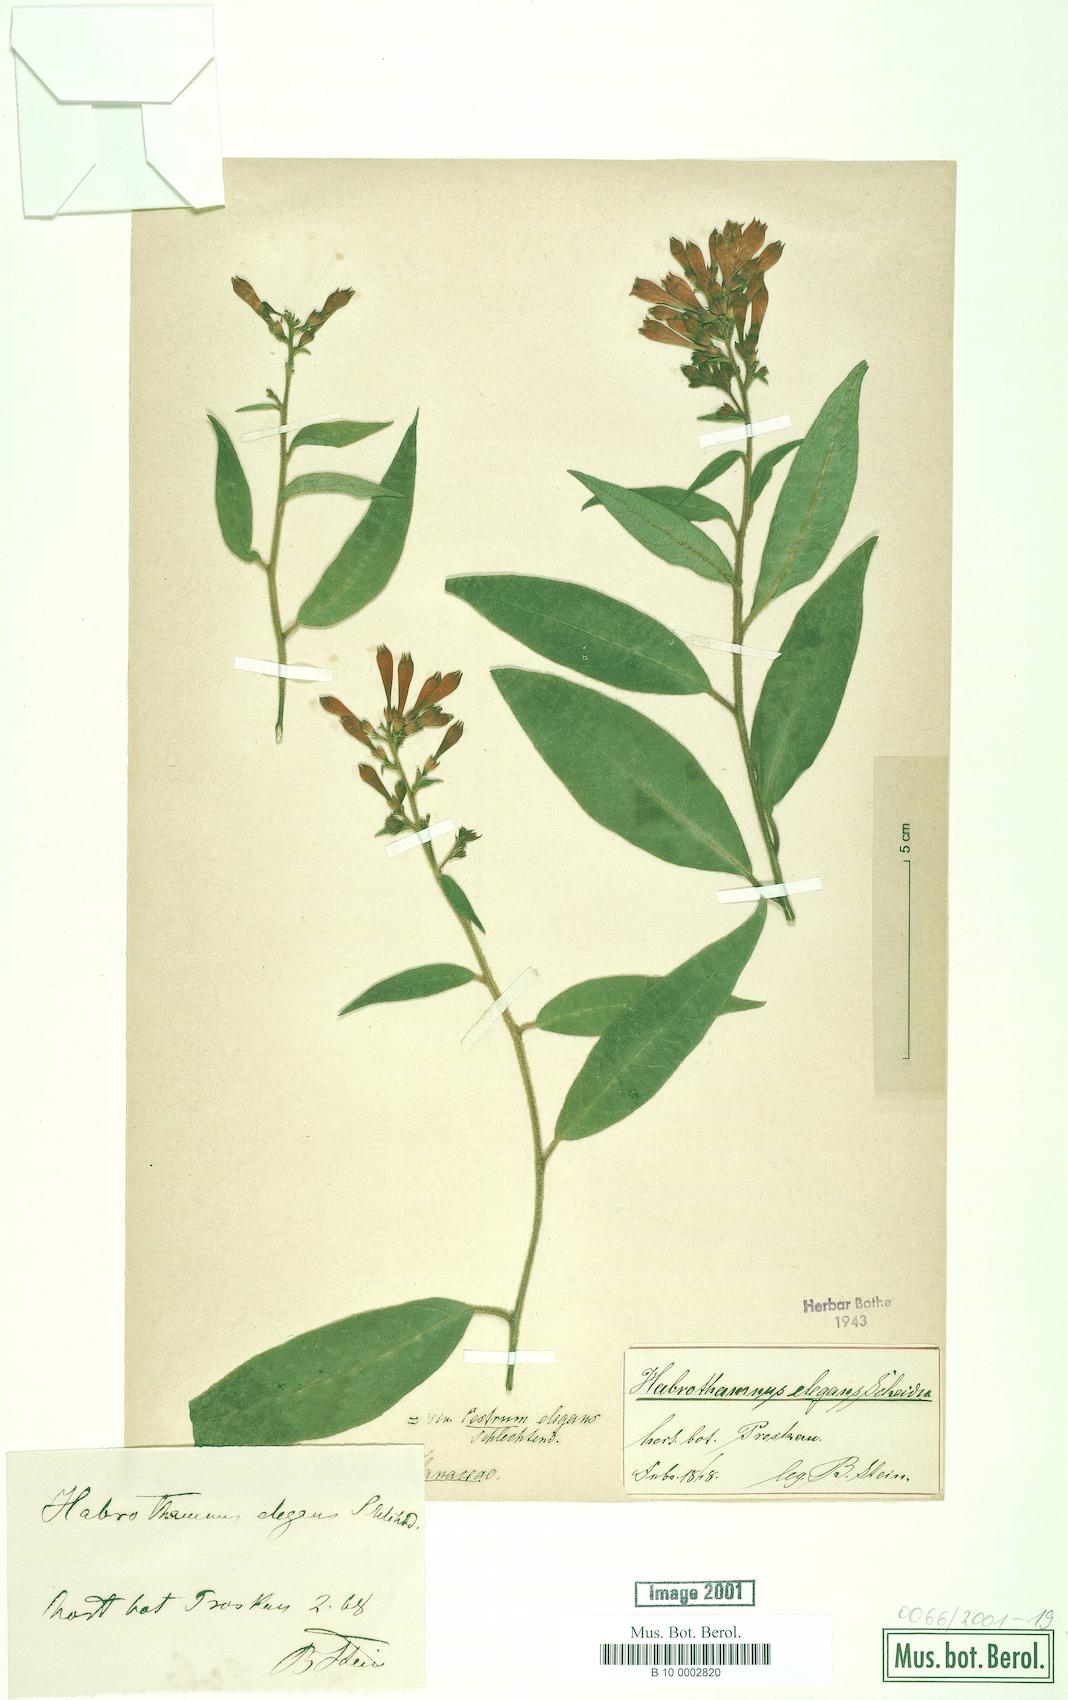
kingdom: Plantae
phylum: Tracheophyta
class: Magnoliopsida
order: Solanales
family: Solanaceae
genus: Cestrum
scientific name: Cestrum elegans
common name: Crimson cestrum
